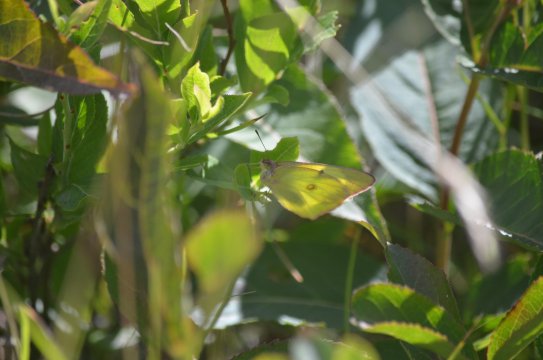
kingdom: Animalia
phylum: Arthropoda
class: Insecta
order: Lepidoptera
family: Pieridae
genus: Colias
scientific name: Colias interior
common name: Pink-edged Sulphur
